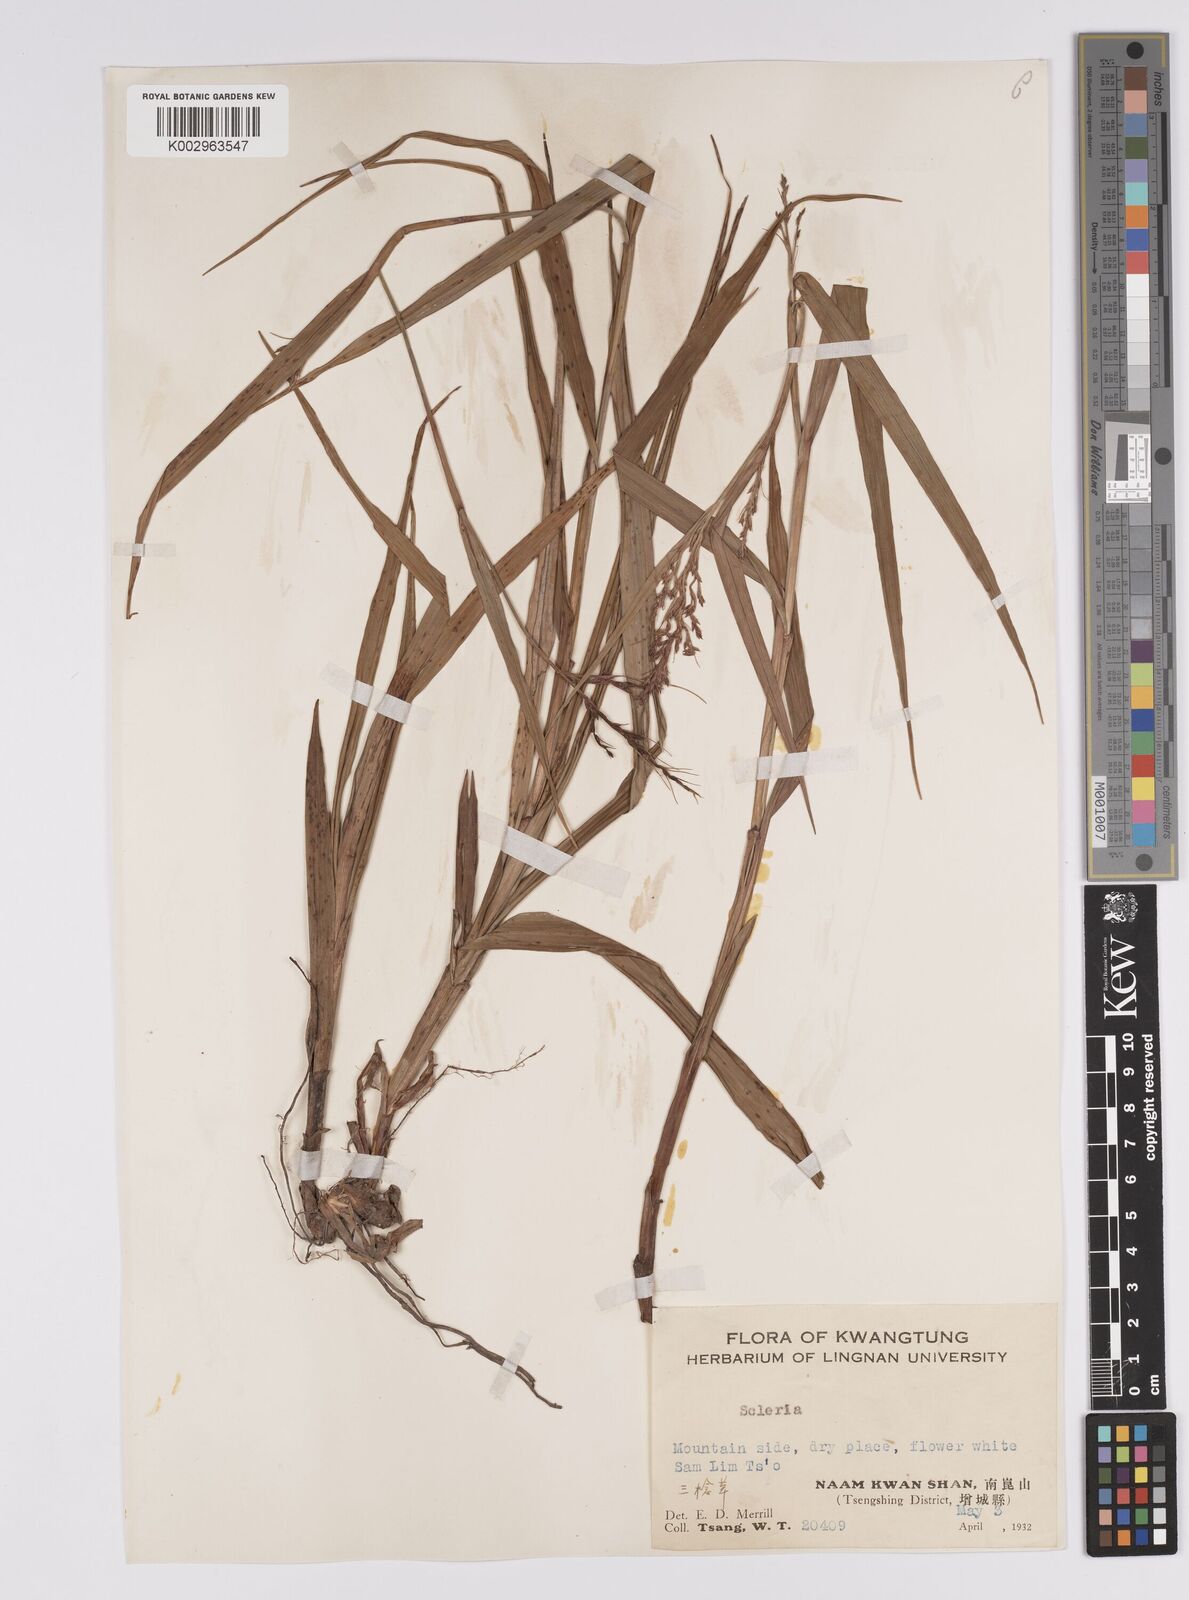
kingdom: Plantae
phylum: Tracheophyta
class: Liliopsida
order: Poales
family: Cyperaceae
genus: Scleria
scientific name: Scleria sumatrensis
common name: Sumatran scleria
